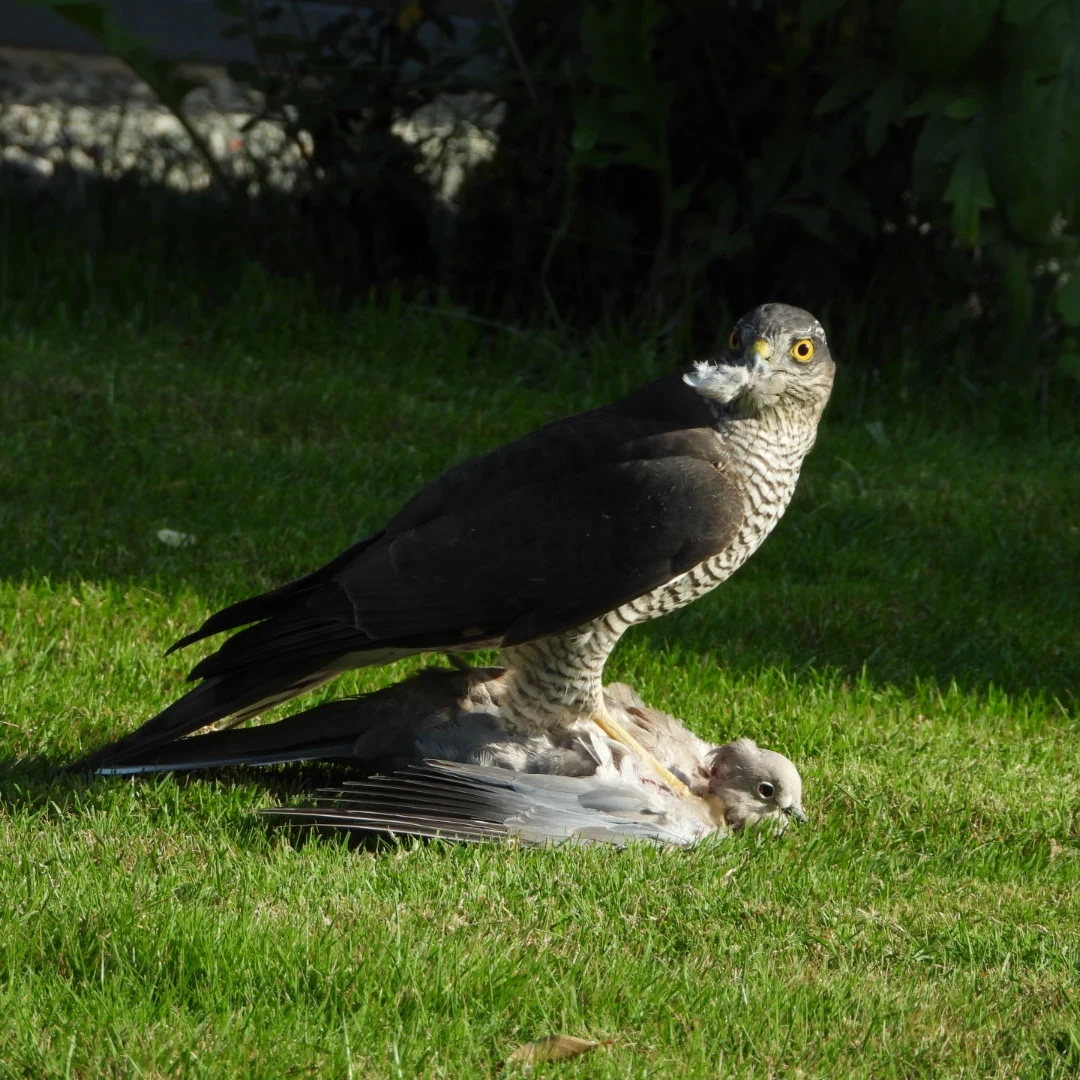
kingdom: Animalia
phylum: Chordata
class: Aves
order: Accipitriformes
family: Accipitridae
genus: Accipiter
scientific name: Accipiter nisus
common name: Spurvehøg
